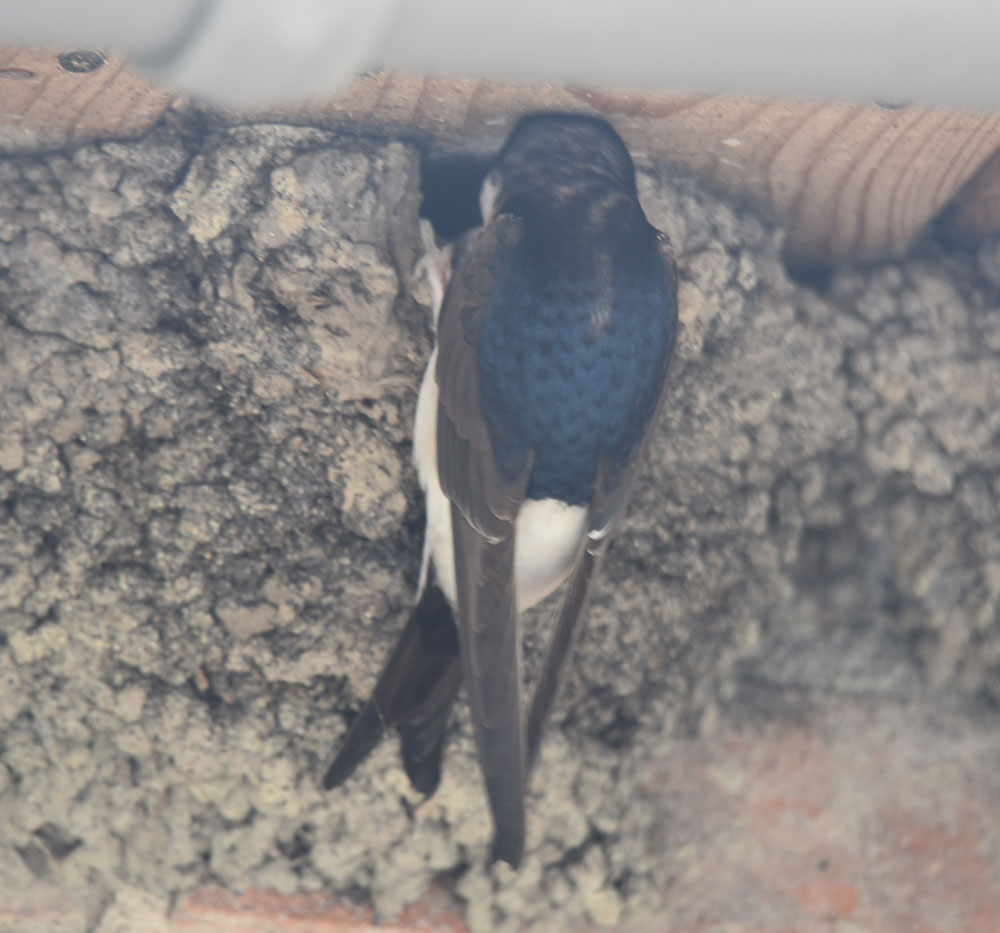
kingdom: Animalia
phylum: Chordata
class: Aves
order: Passeriformes
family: Hirundinidae
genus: Delichon
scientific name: Delichon urbicum
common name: Common house martin
